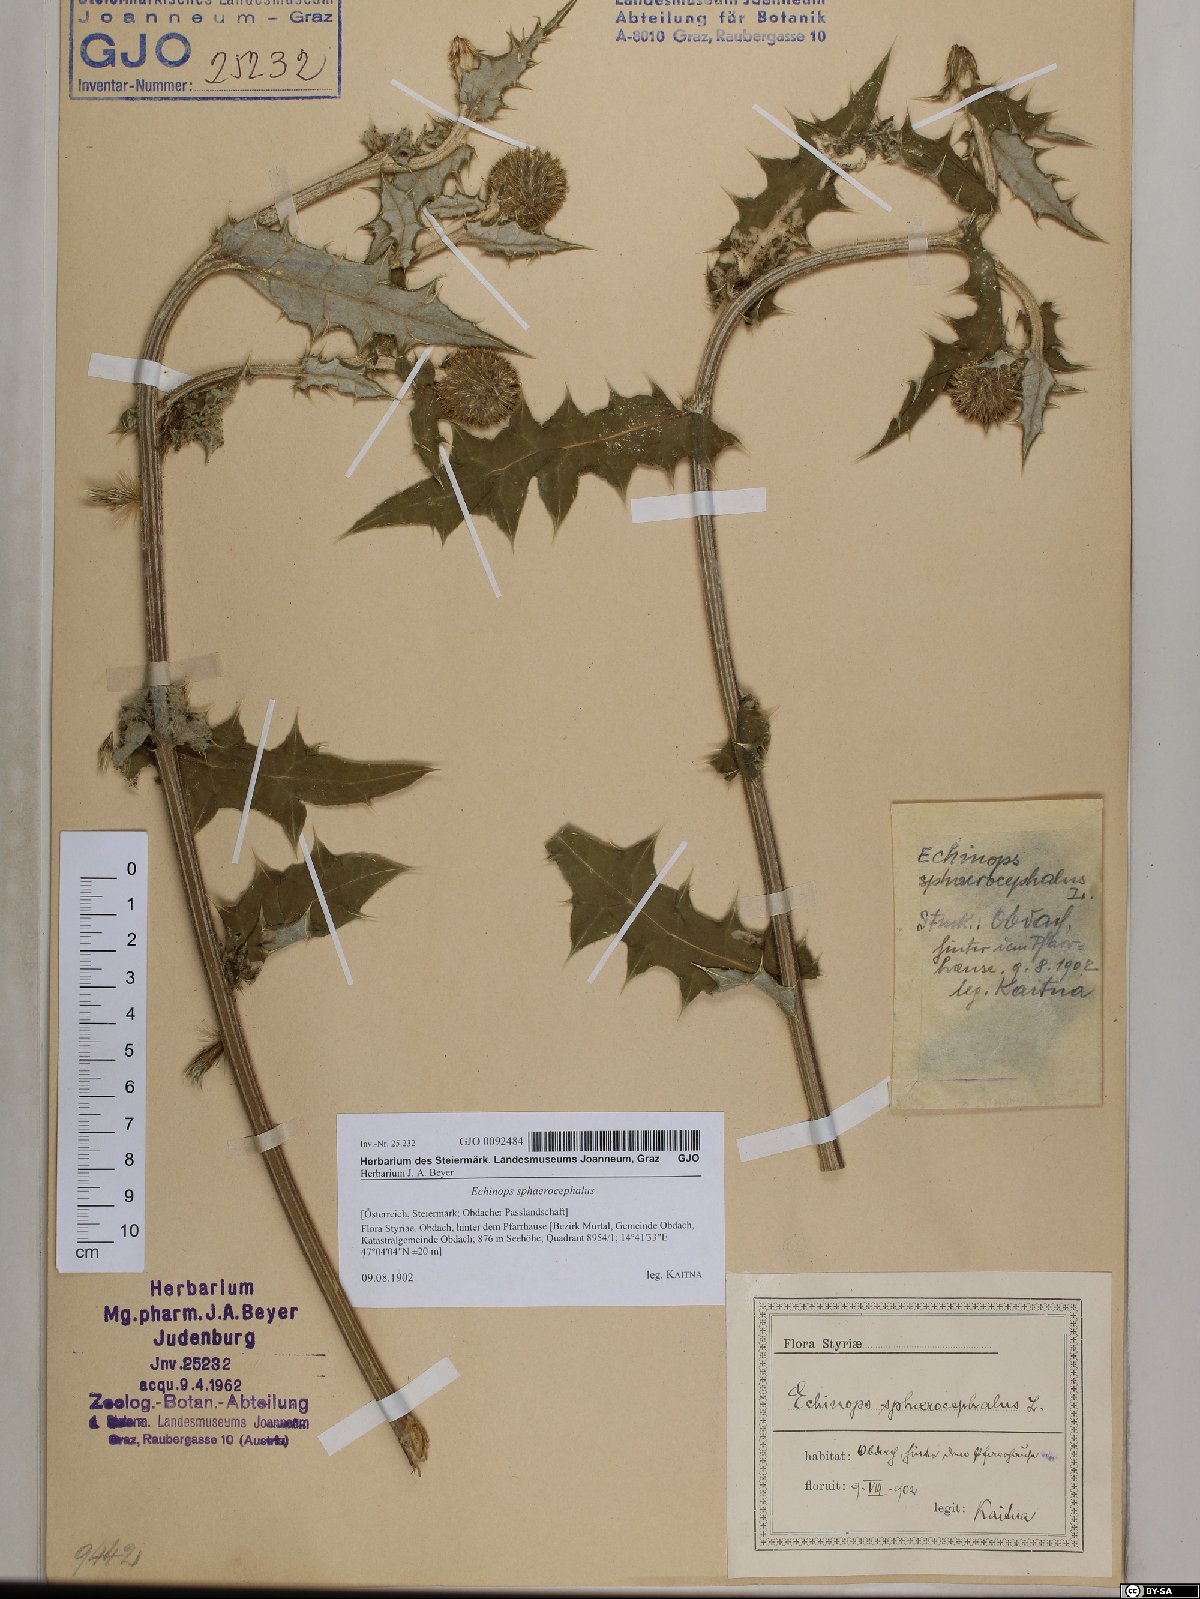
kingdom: Plantae
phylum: Tracheophyta
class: Magnoliopsida
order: Asterales
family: Asteraceae
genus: Echinops
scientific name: Echinops sphaerocephalus
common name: Glandular globe-thistle
